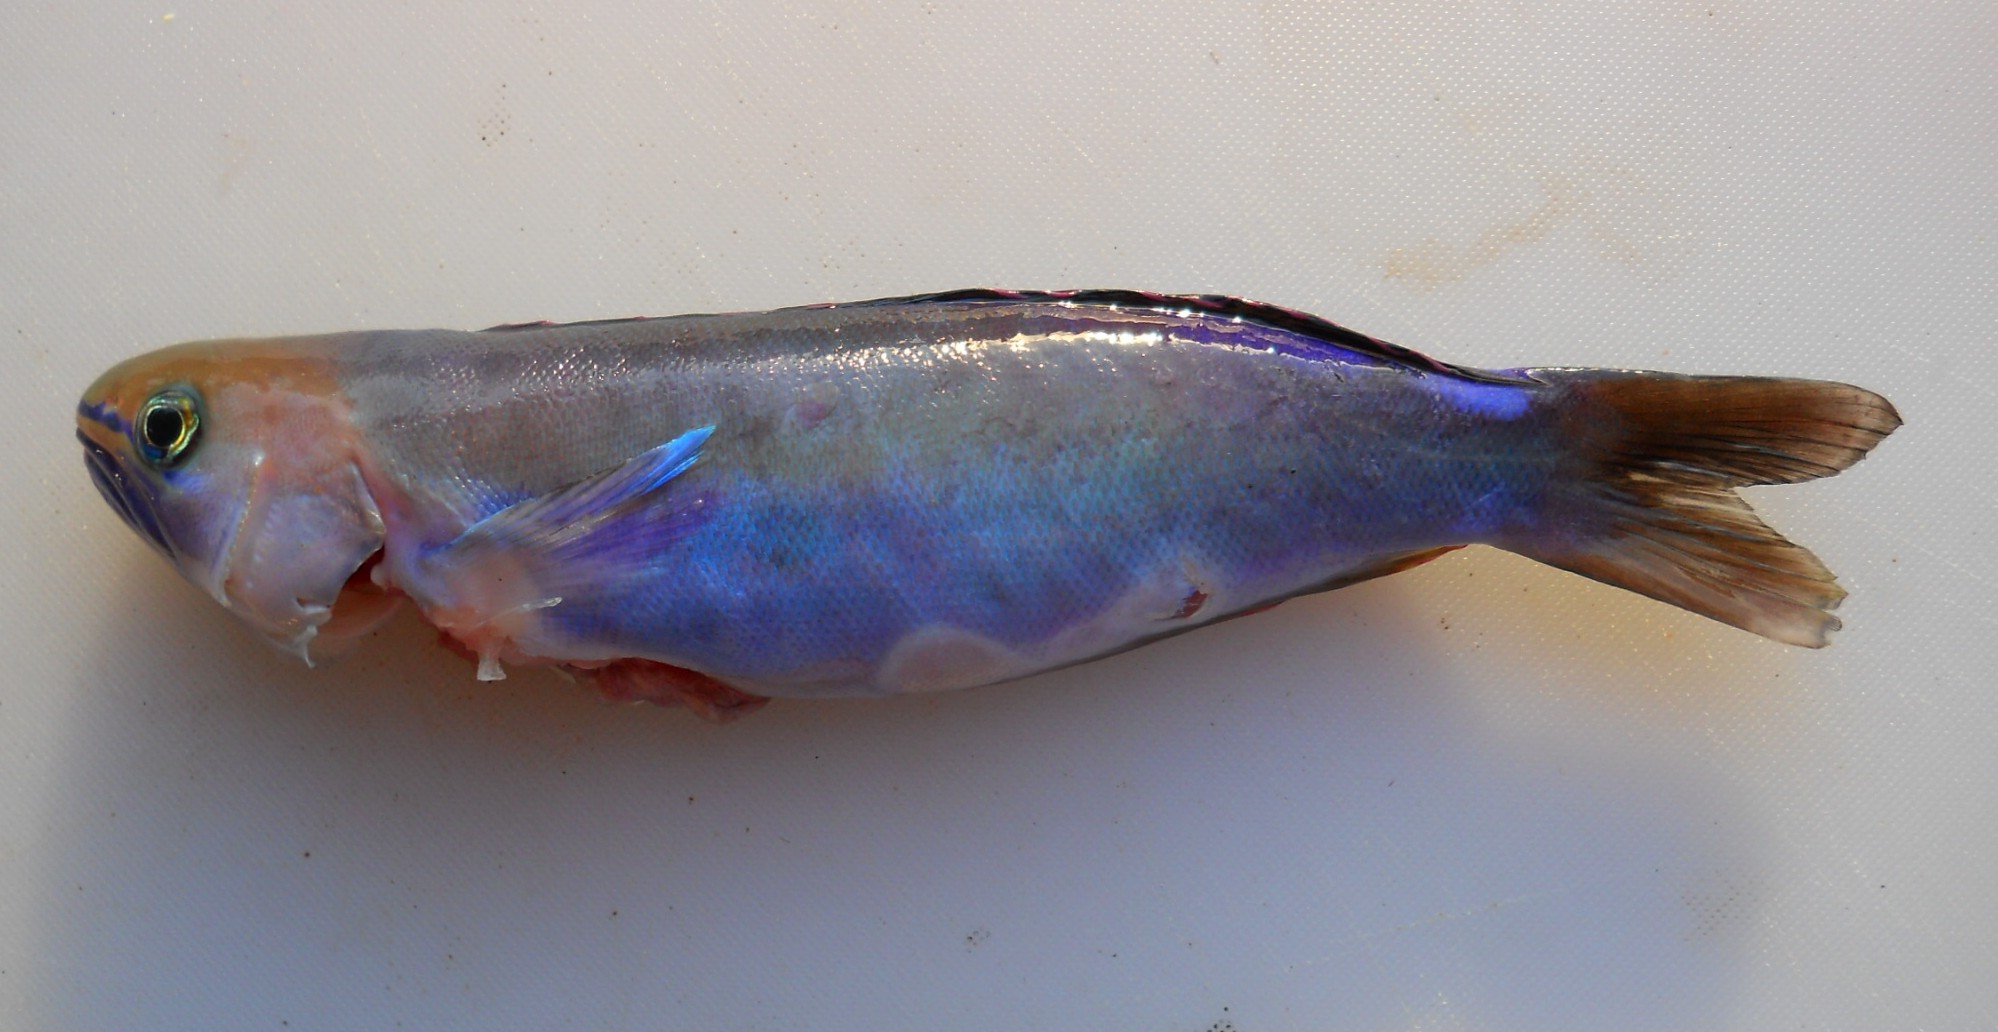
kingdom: Animalia
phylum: Chordata
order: Perciformes
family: Malacanthidae
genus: Hoplolatilus
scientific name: Hoplolatilus fronticinctus
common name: Blue-saddled tilefish
